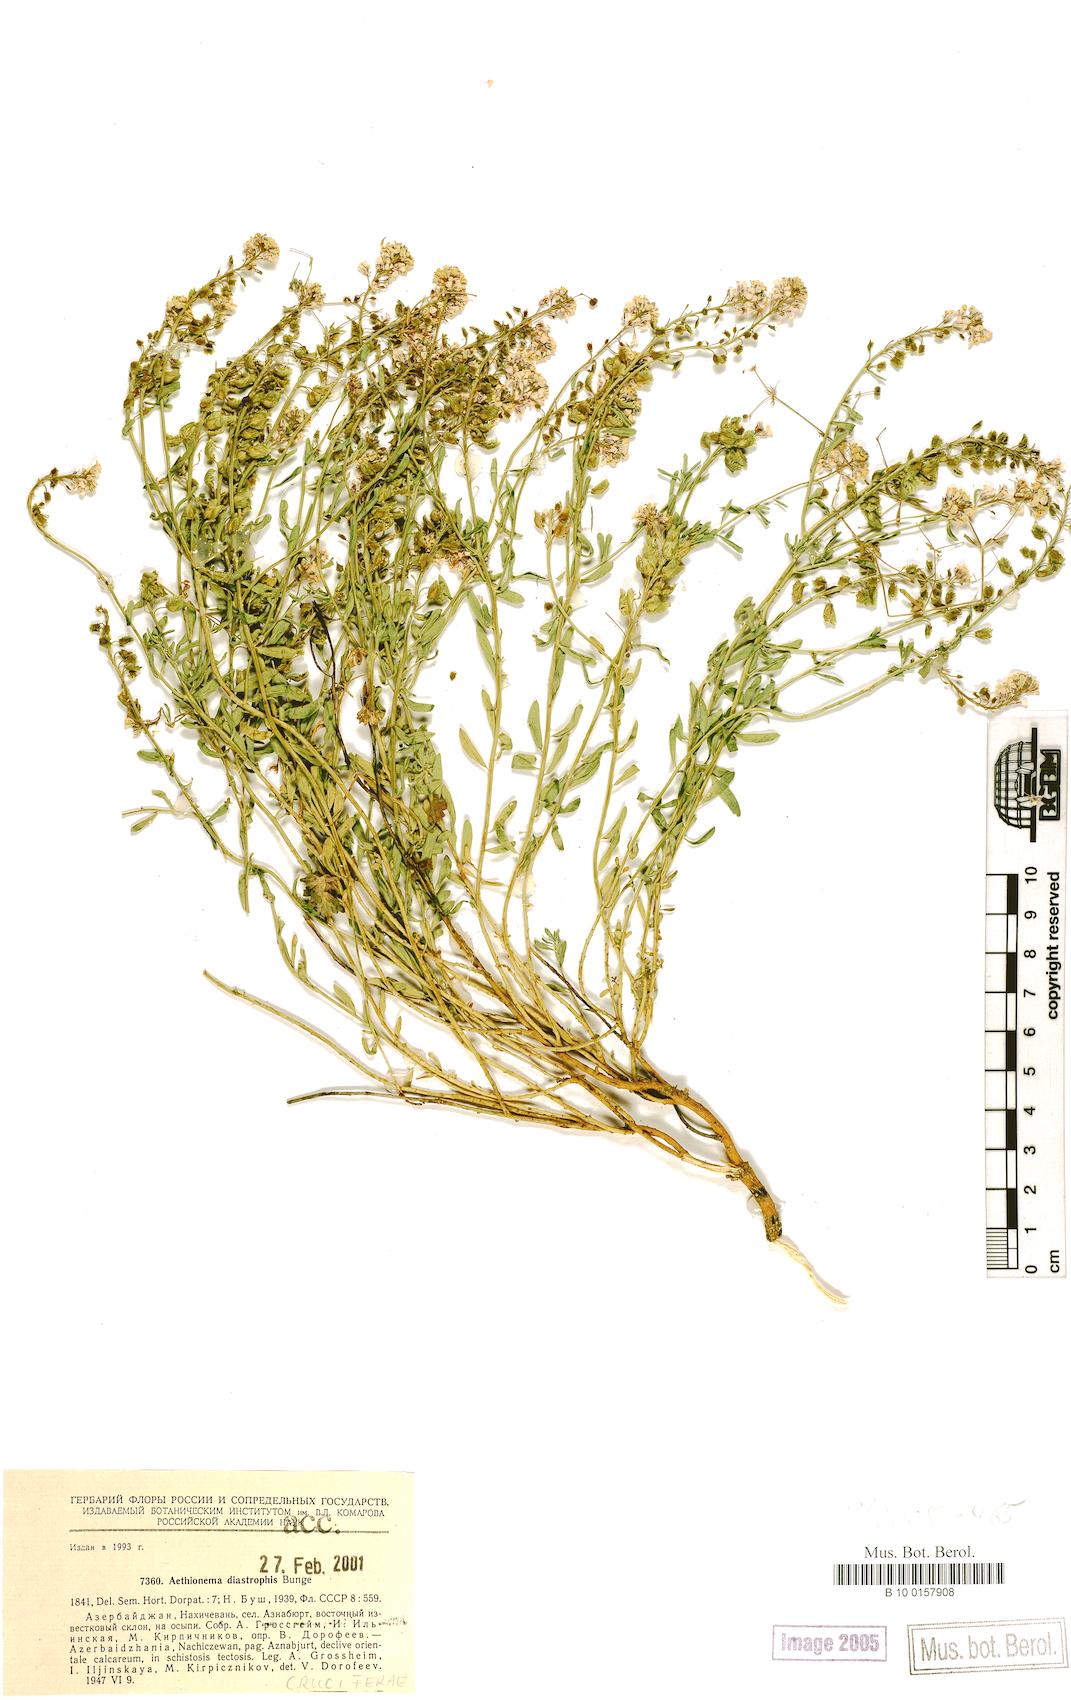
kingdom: Plantae
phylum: Tracheophyta
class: Magnoliopsida
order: Brassicales
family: Brassicaceae
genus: Aethionema
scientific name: Aethionema diastrophis
